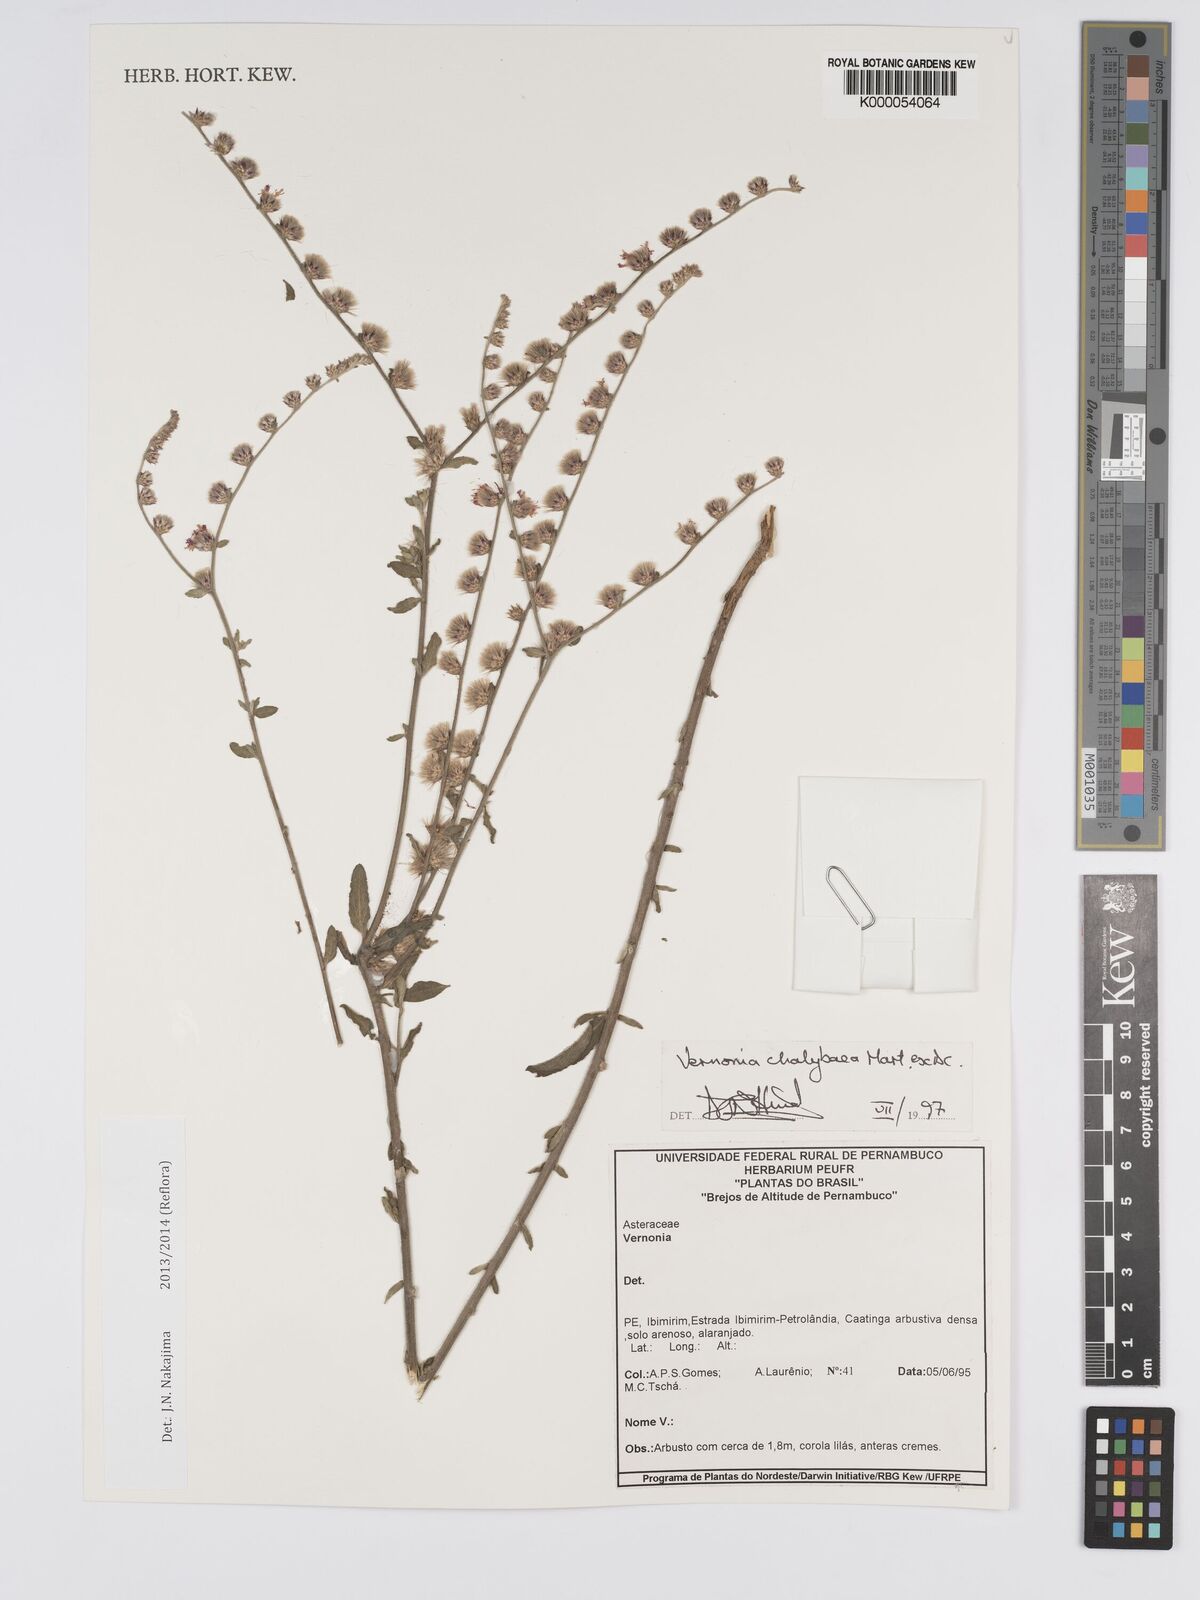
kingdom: Plantae
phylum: Tracheophyta
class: Magnoliopsida
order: Asterales
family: Asteraceae
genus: Lepidaploa
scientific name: Lepidaploa chalybaea
